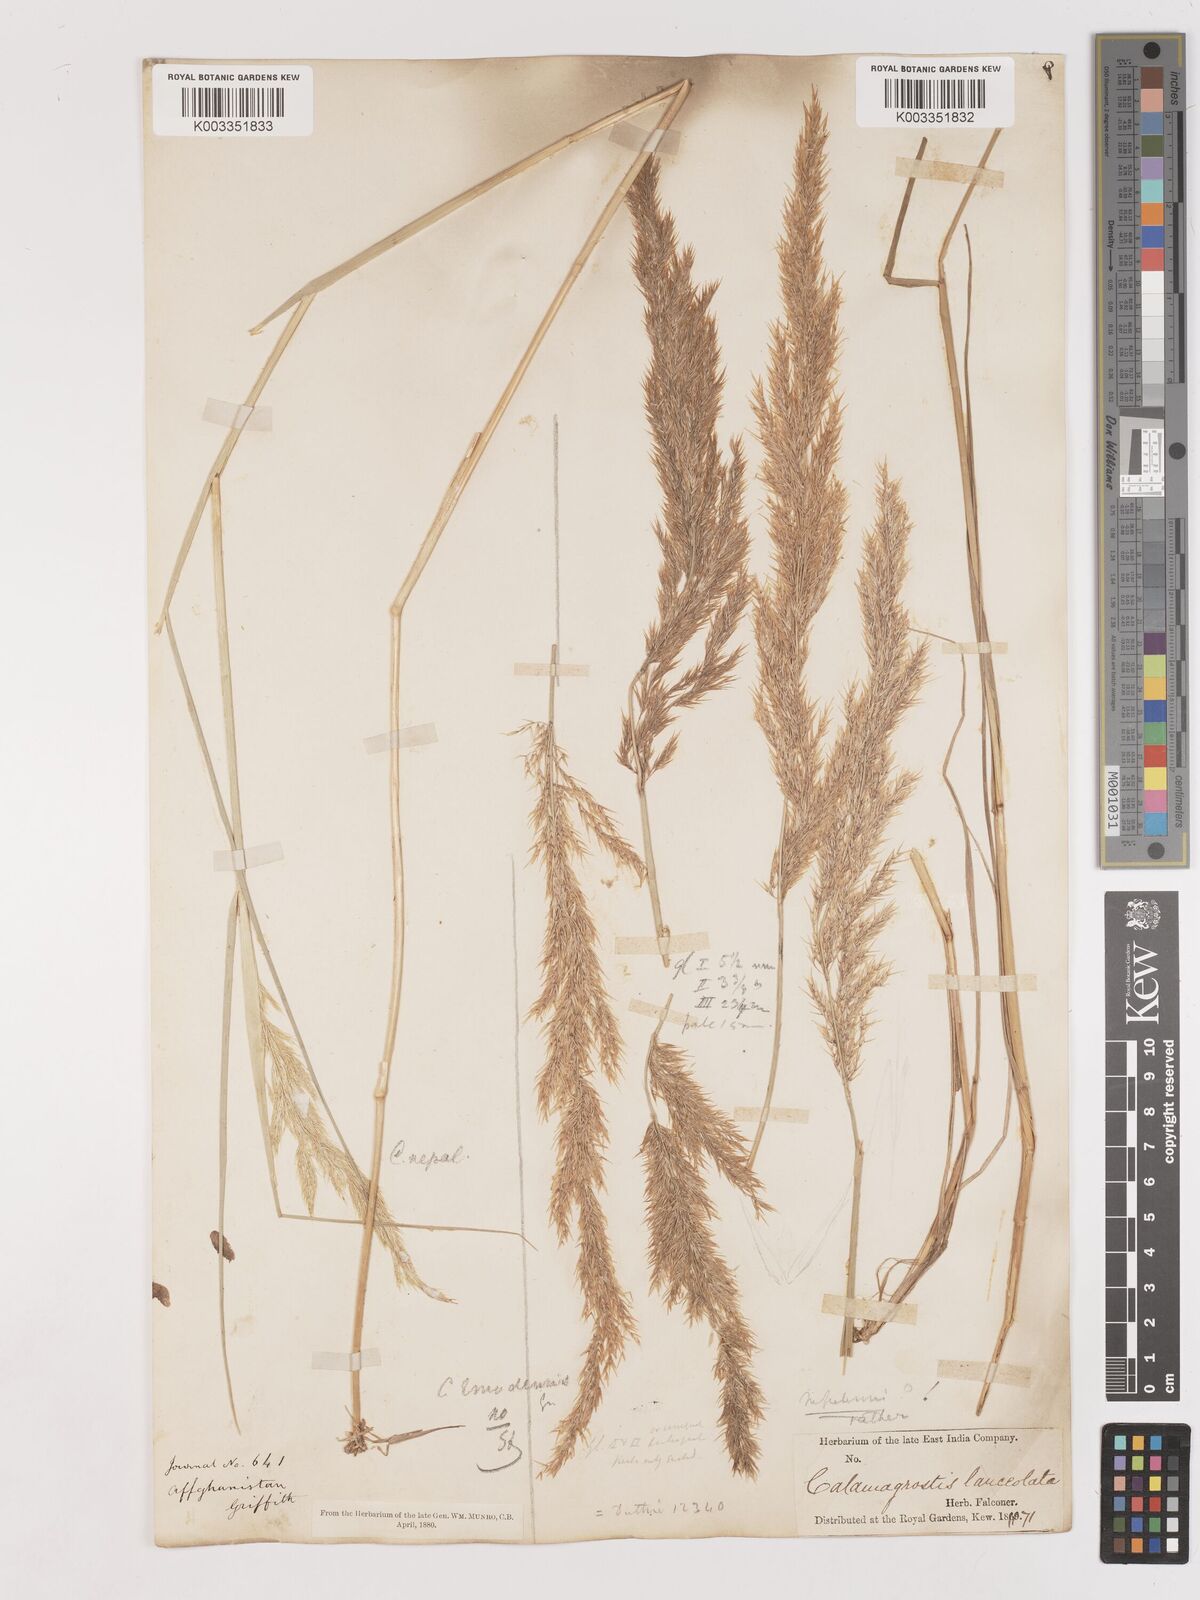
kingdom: Plantae
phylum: Tracheophyta
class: Liliopsida
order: Poales
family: Poaceae
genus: Calamagrostis
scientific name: Calamagrostis pseudophragmites
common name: Coastal small-reed
